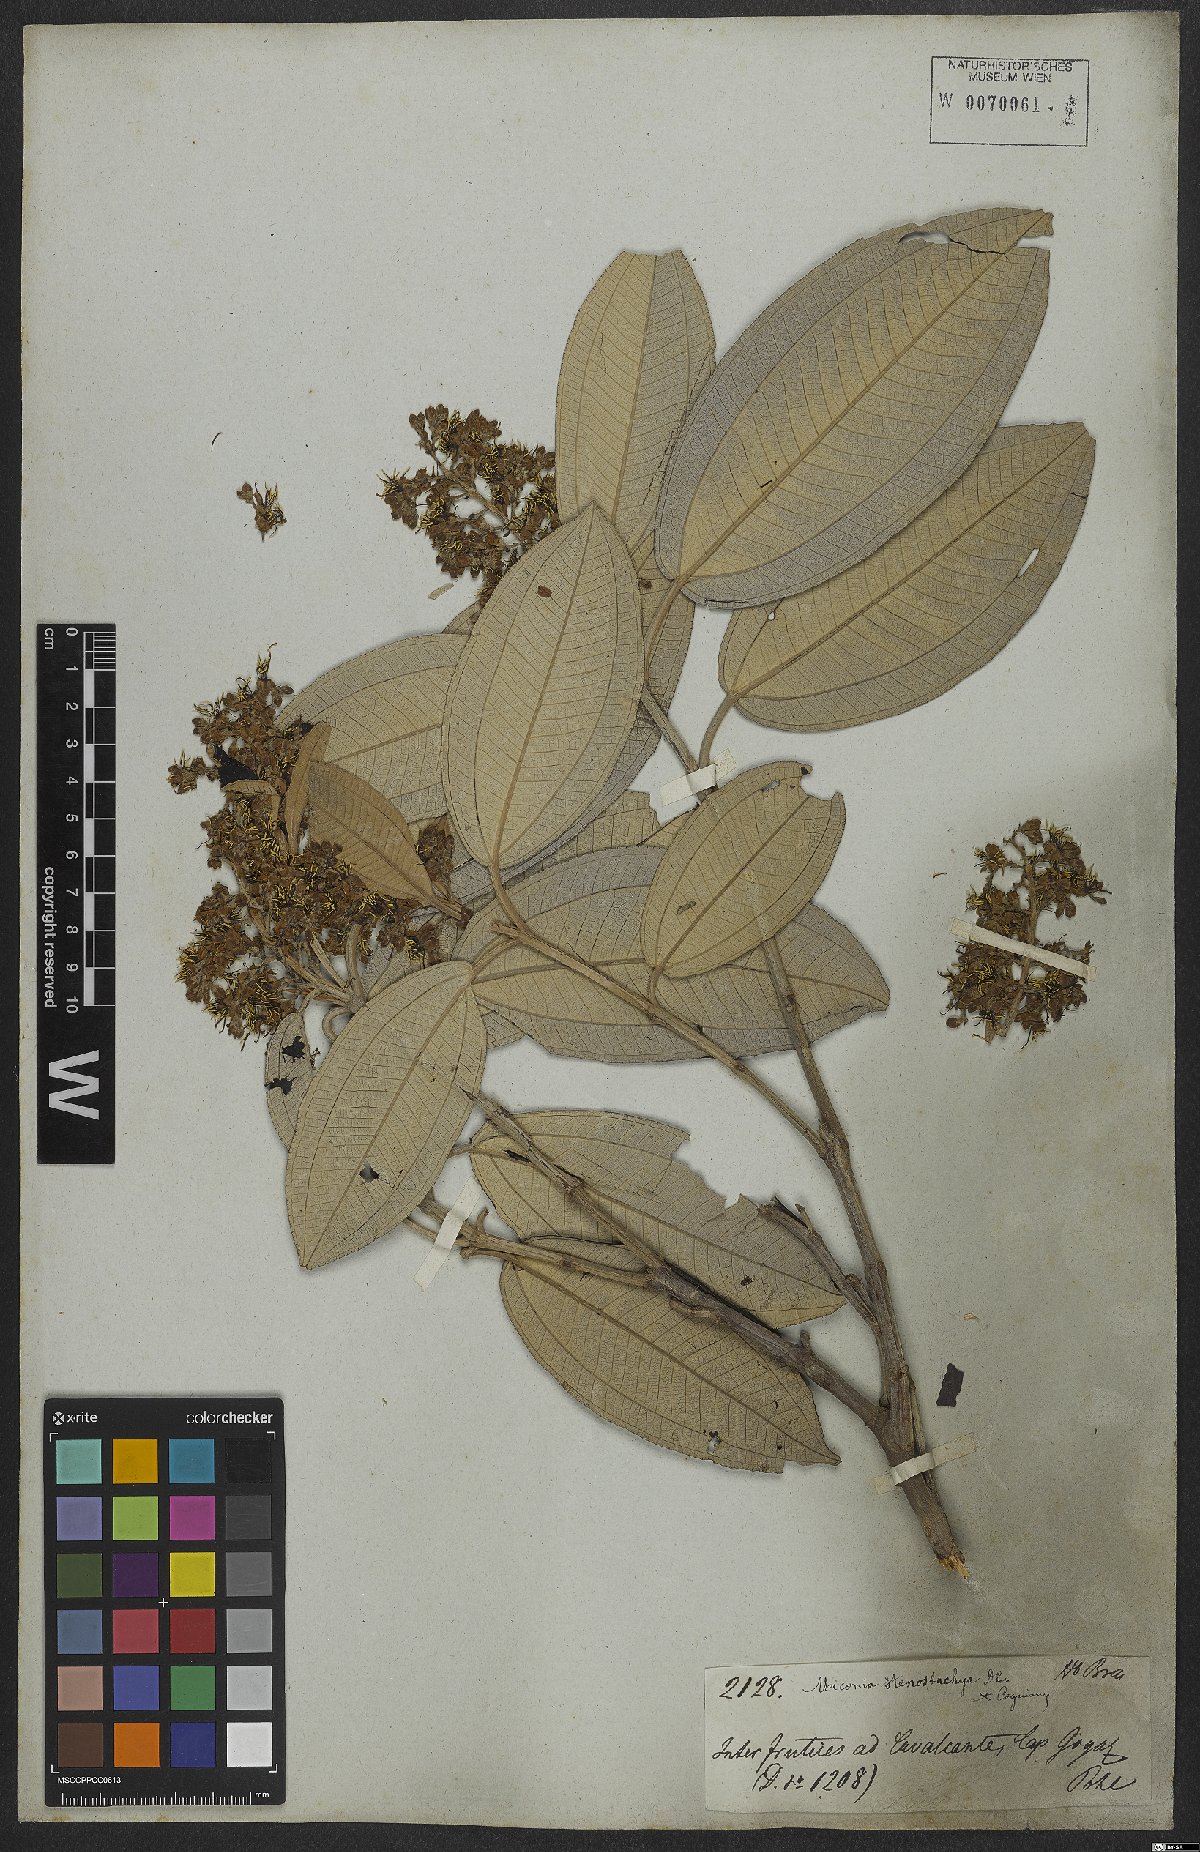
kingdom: Plantae
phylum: Tracheophyta
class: Magnoliopsida
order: Myrtales
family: Melastomataceae
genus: Miconia
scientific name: Miconia stenostachya
